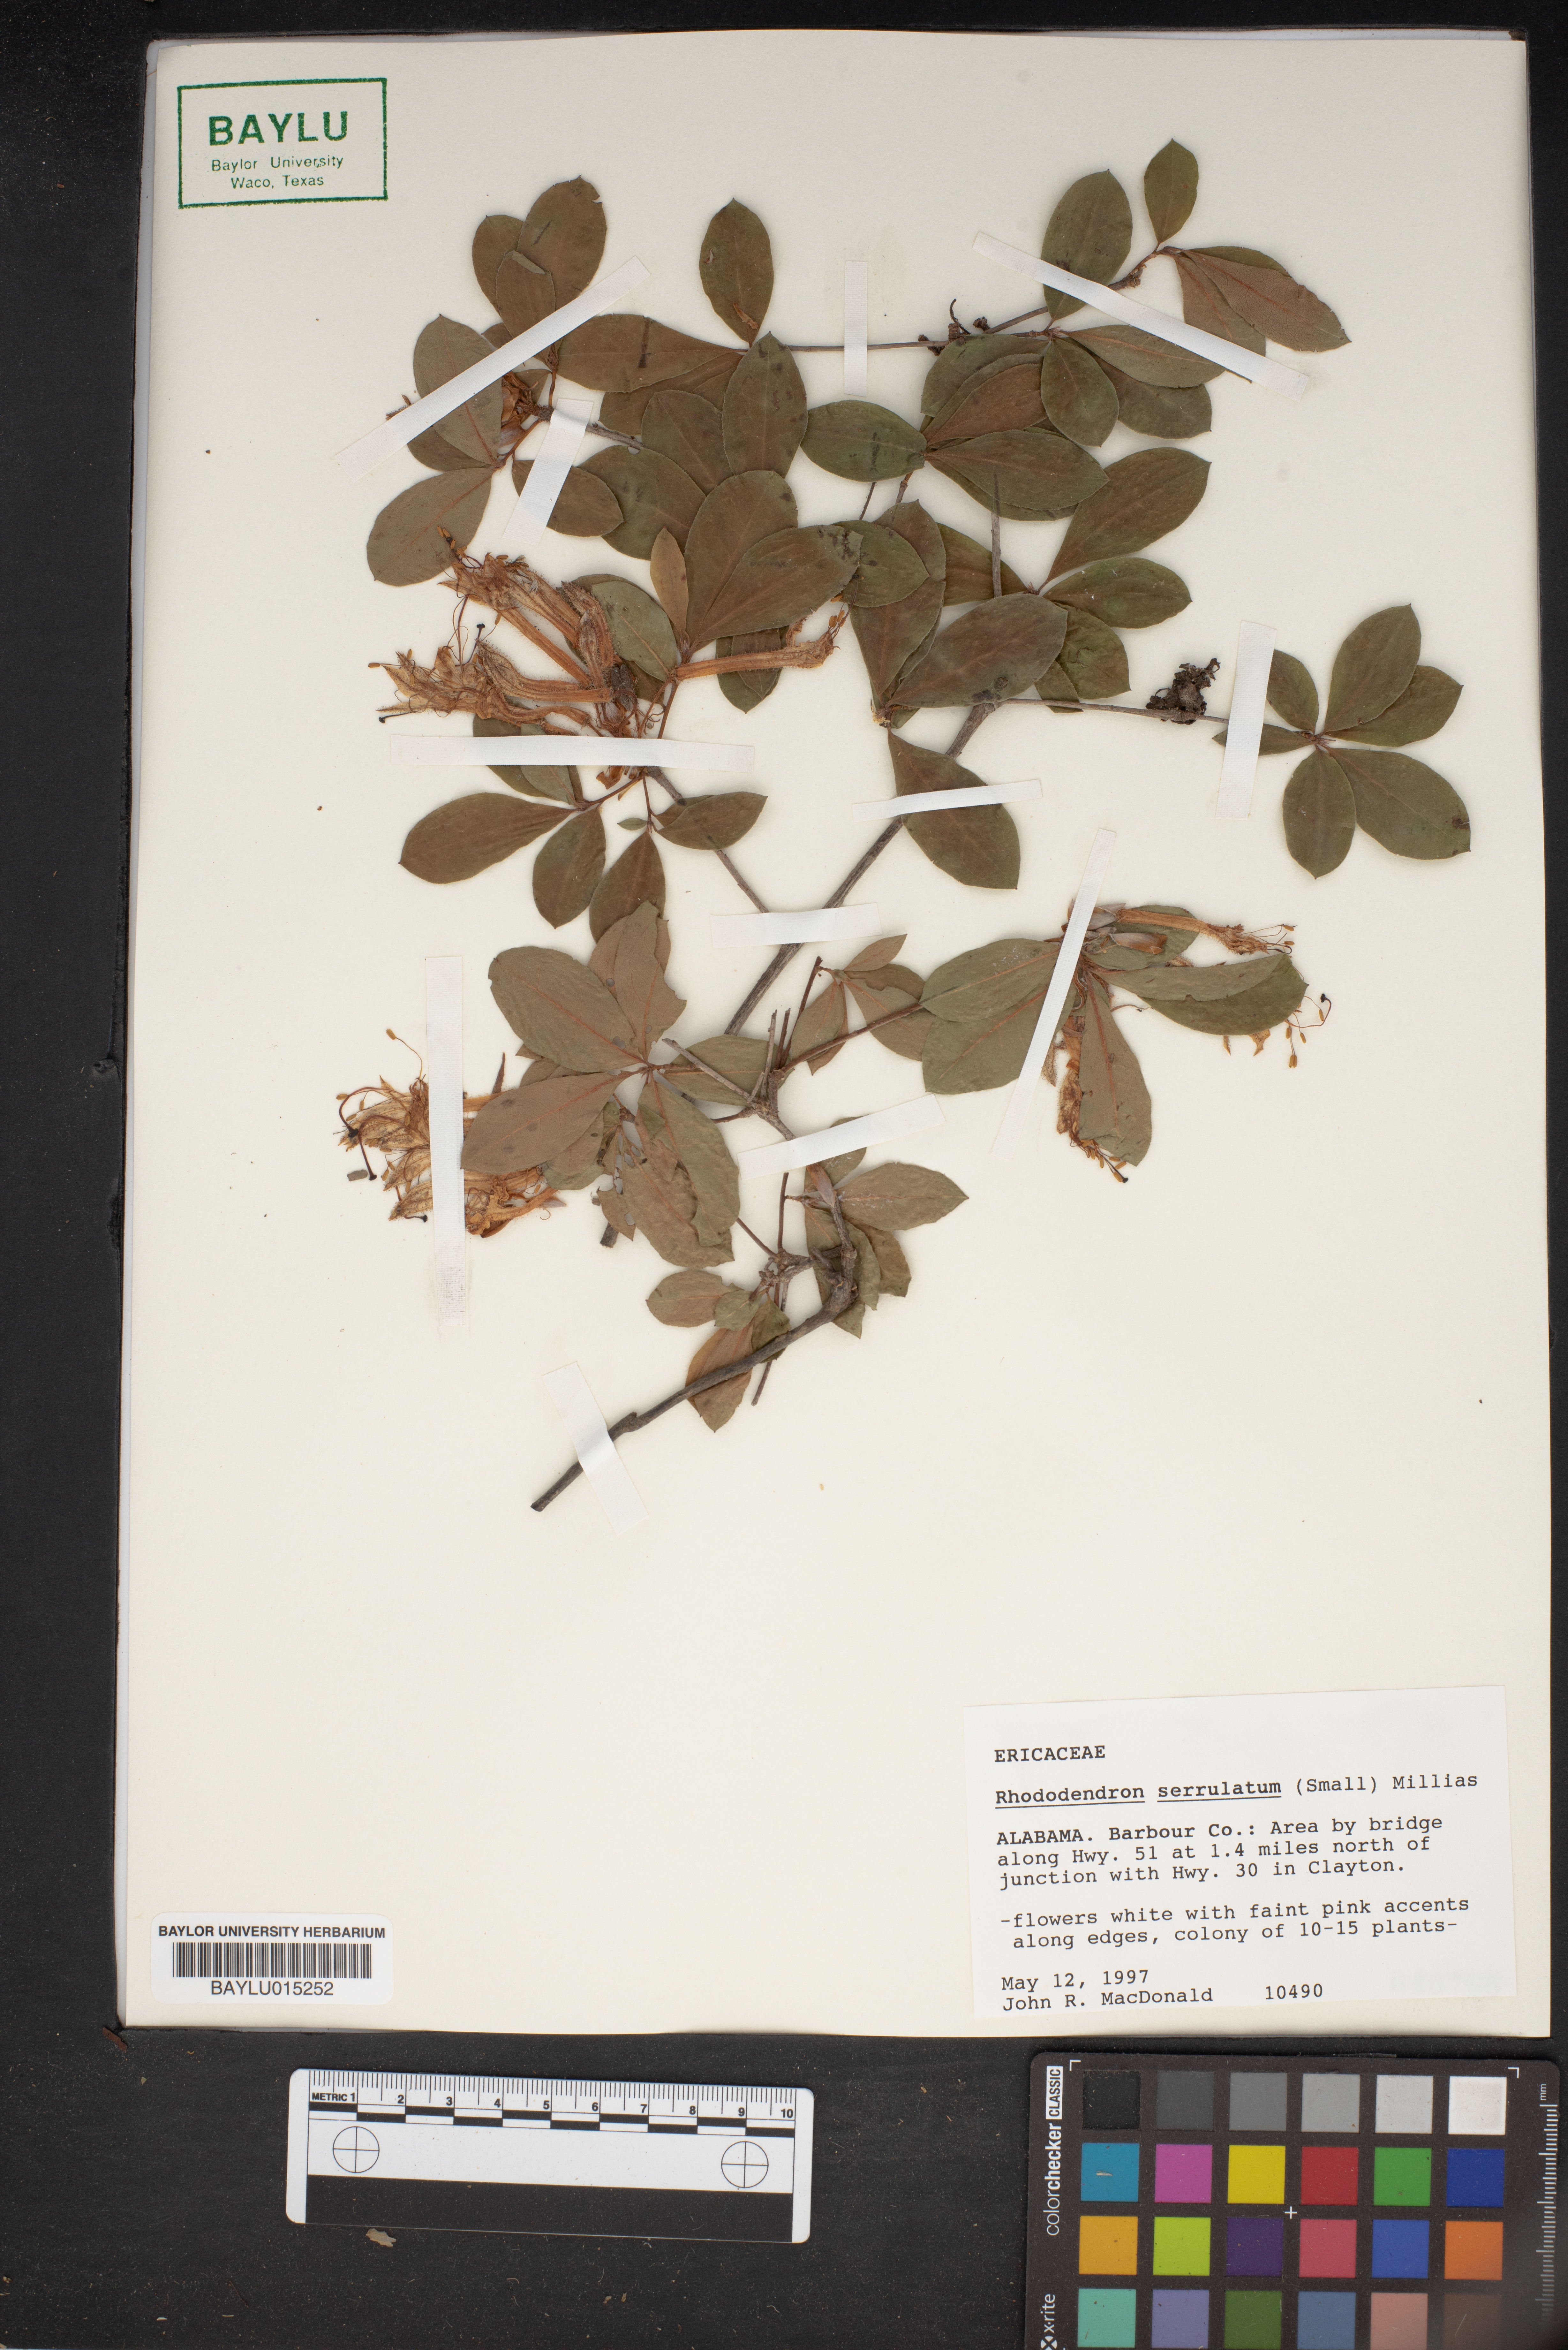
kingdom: Plantae
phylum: Tracheophyta
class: Magnoliopsida
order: Ericales
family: Ericaceae
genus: Rhododendron
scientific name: Rhododendron serrulatum
